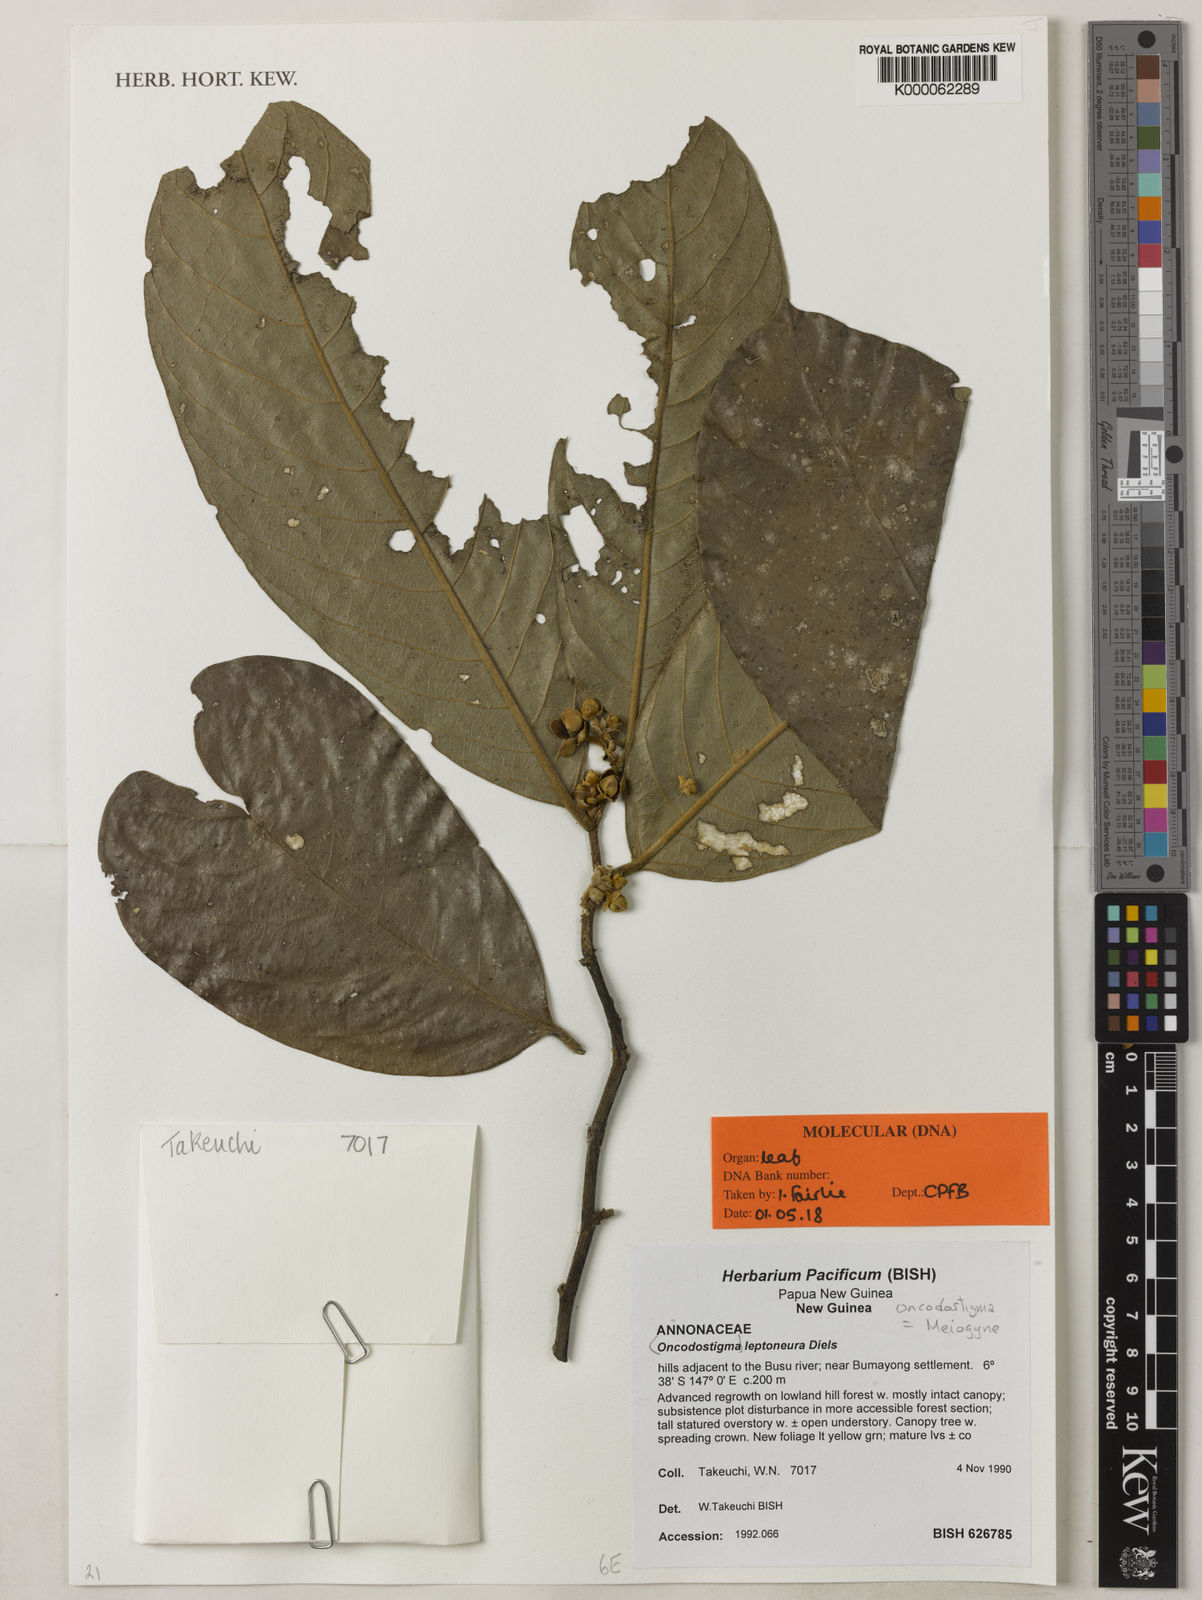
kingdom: Plantae
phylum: Tracheophyta
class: Magnoliopsida
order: Magnoliales
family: Annonaceae
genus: Oncodostigma
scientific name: Oncodostigma leptoneura
